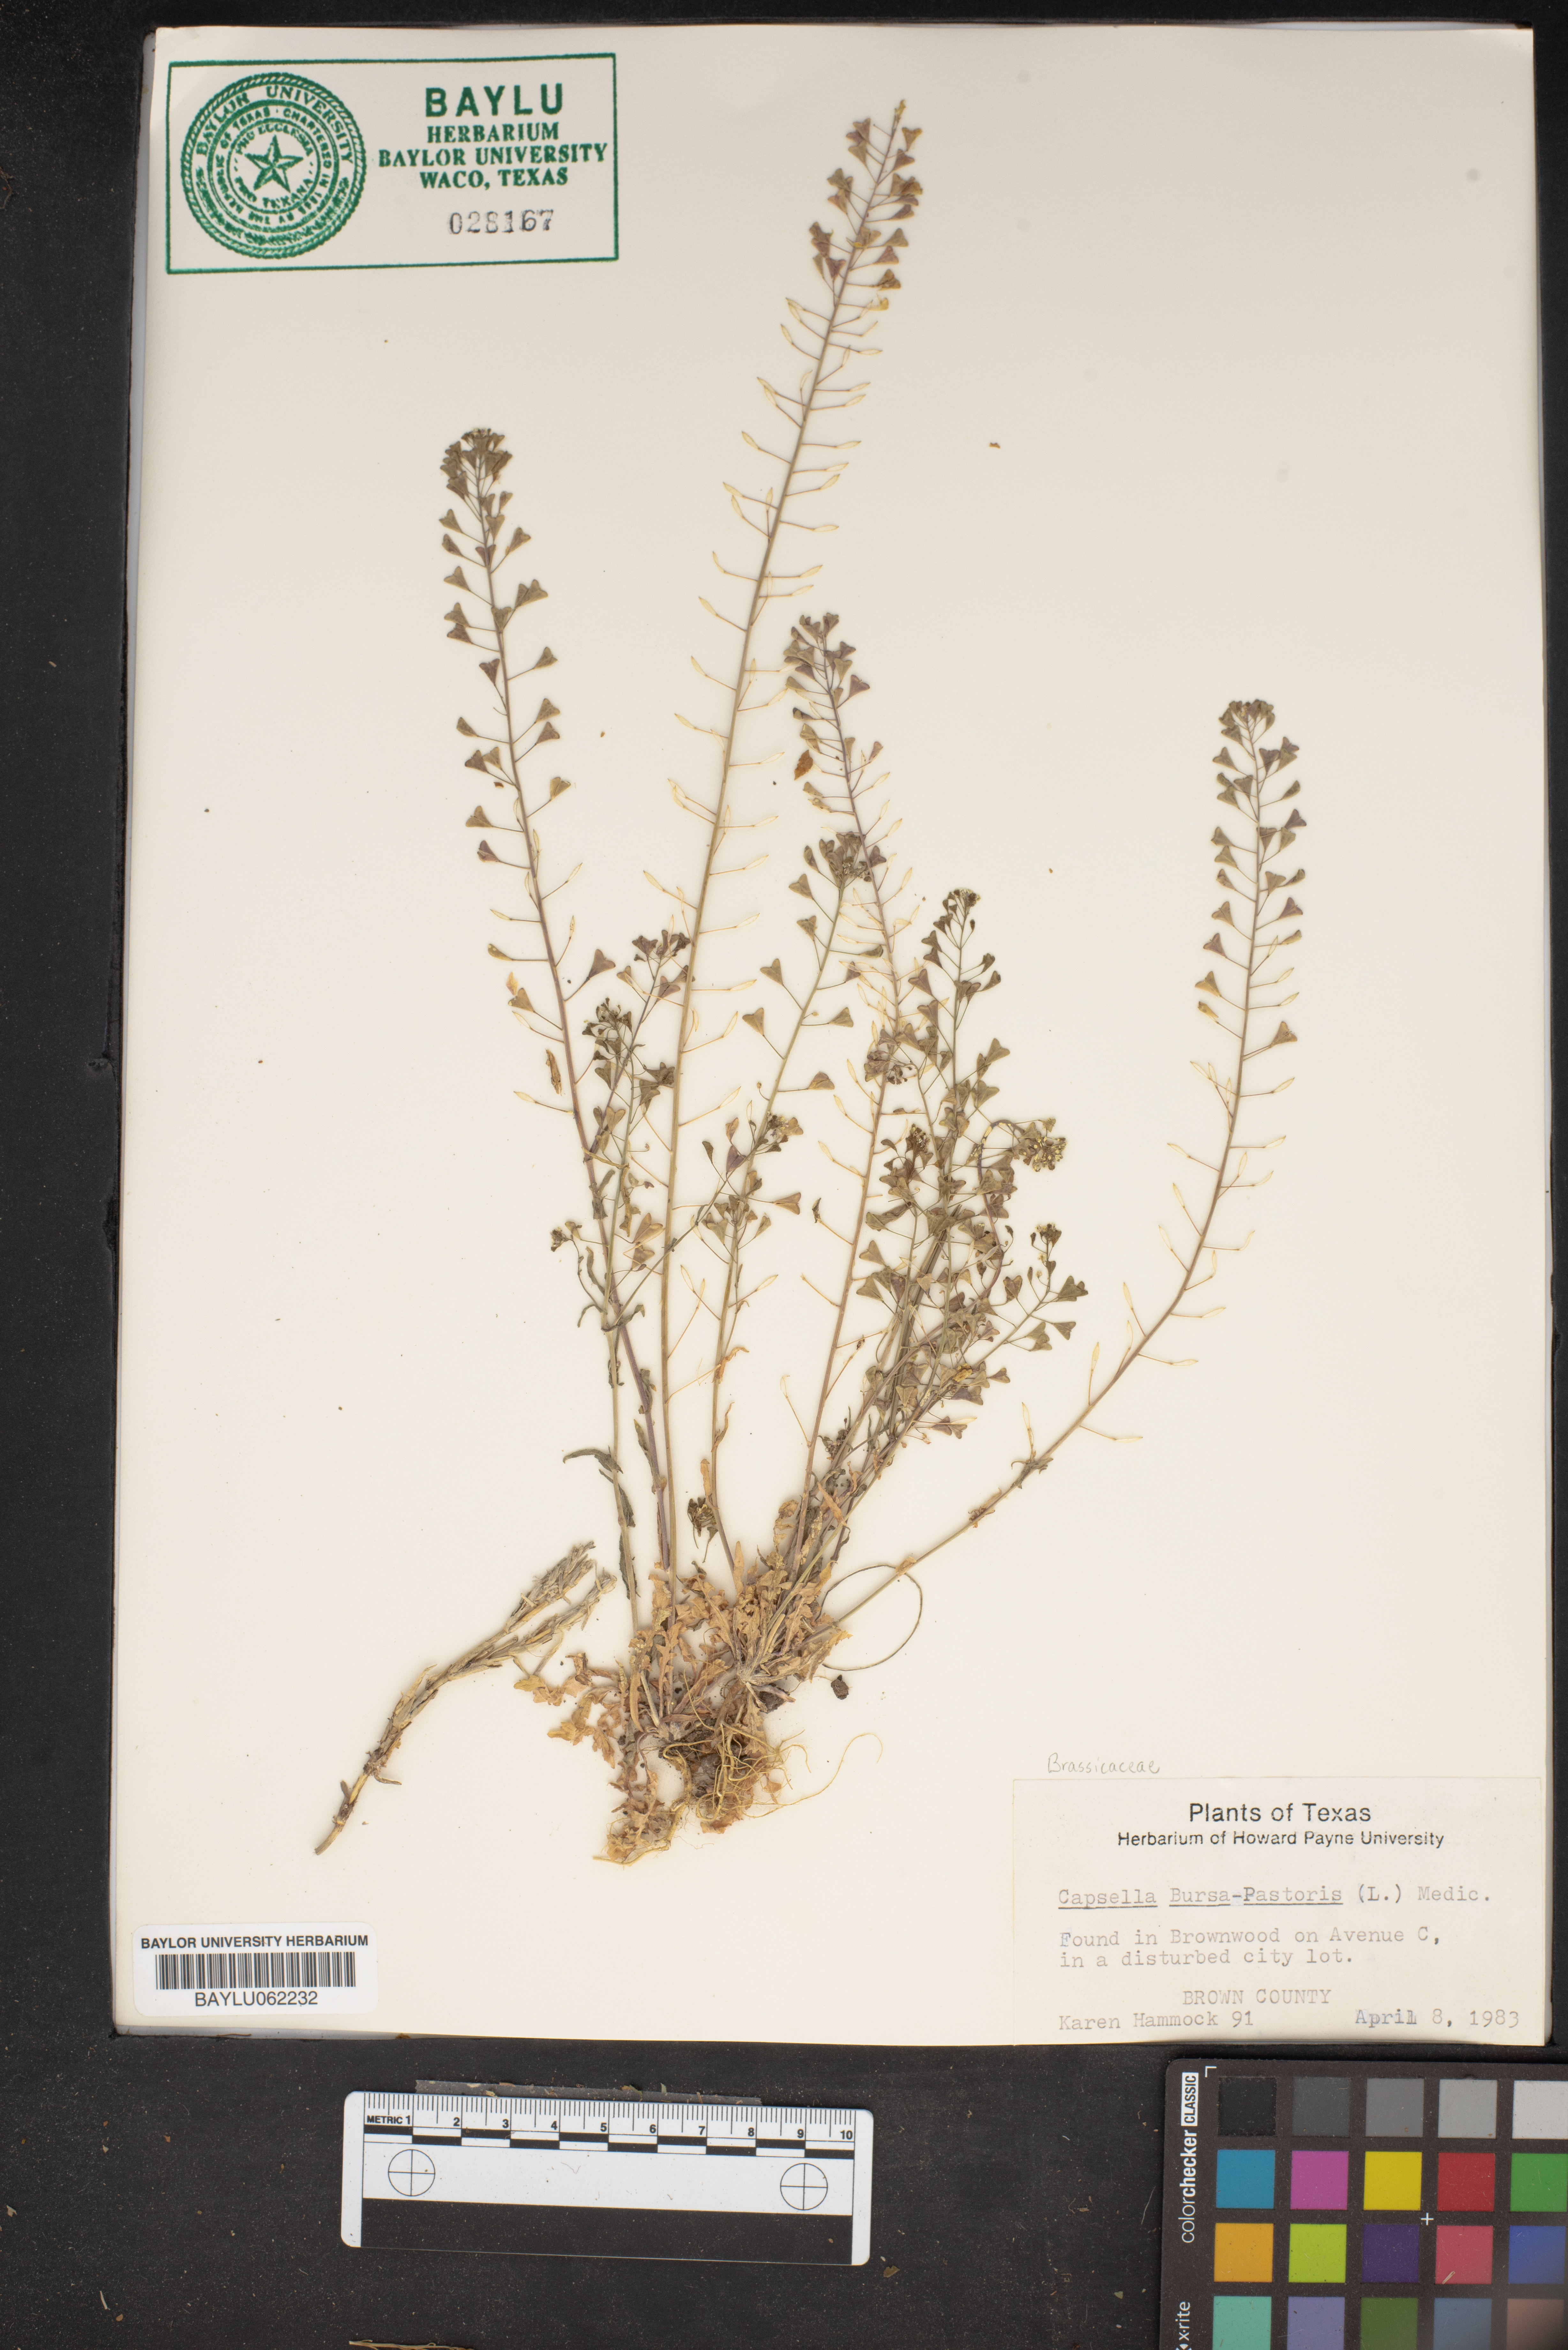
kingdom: Plantae
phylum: Tracheophyta
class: Magnoliopsida
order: Brassicales
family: Brassicaceae
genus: Capsella
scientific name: Capsella bursa-pastoris
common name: Shepherd's purse
